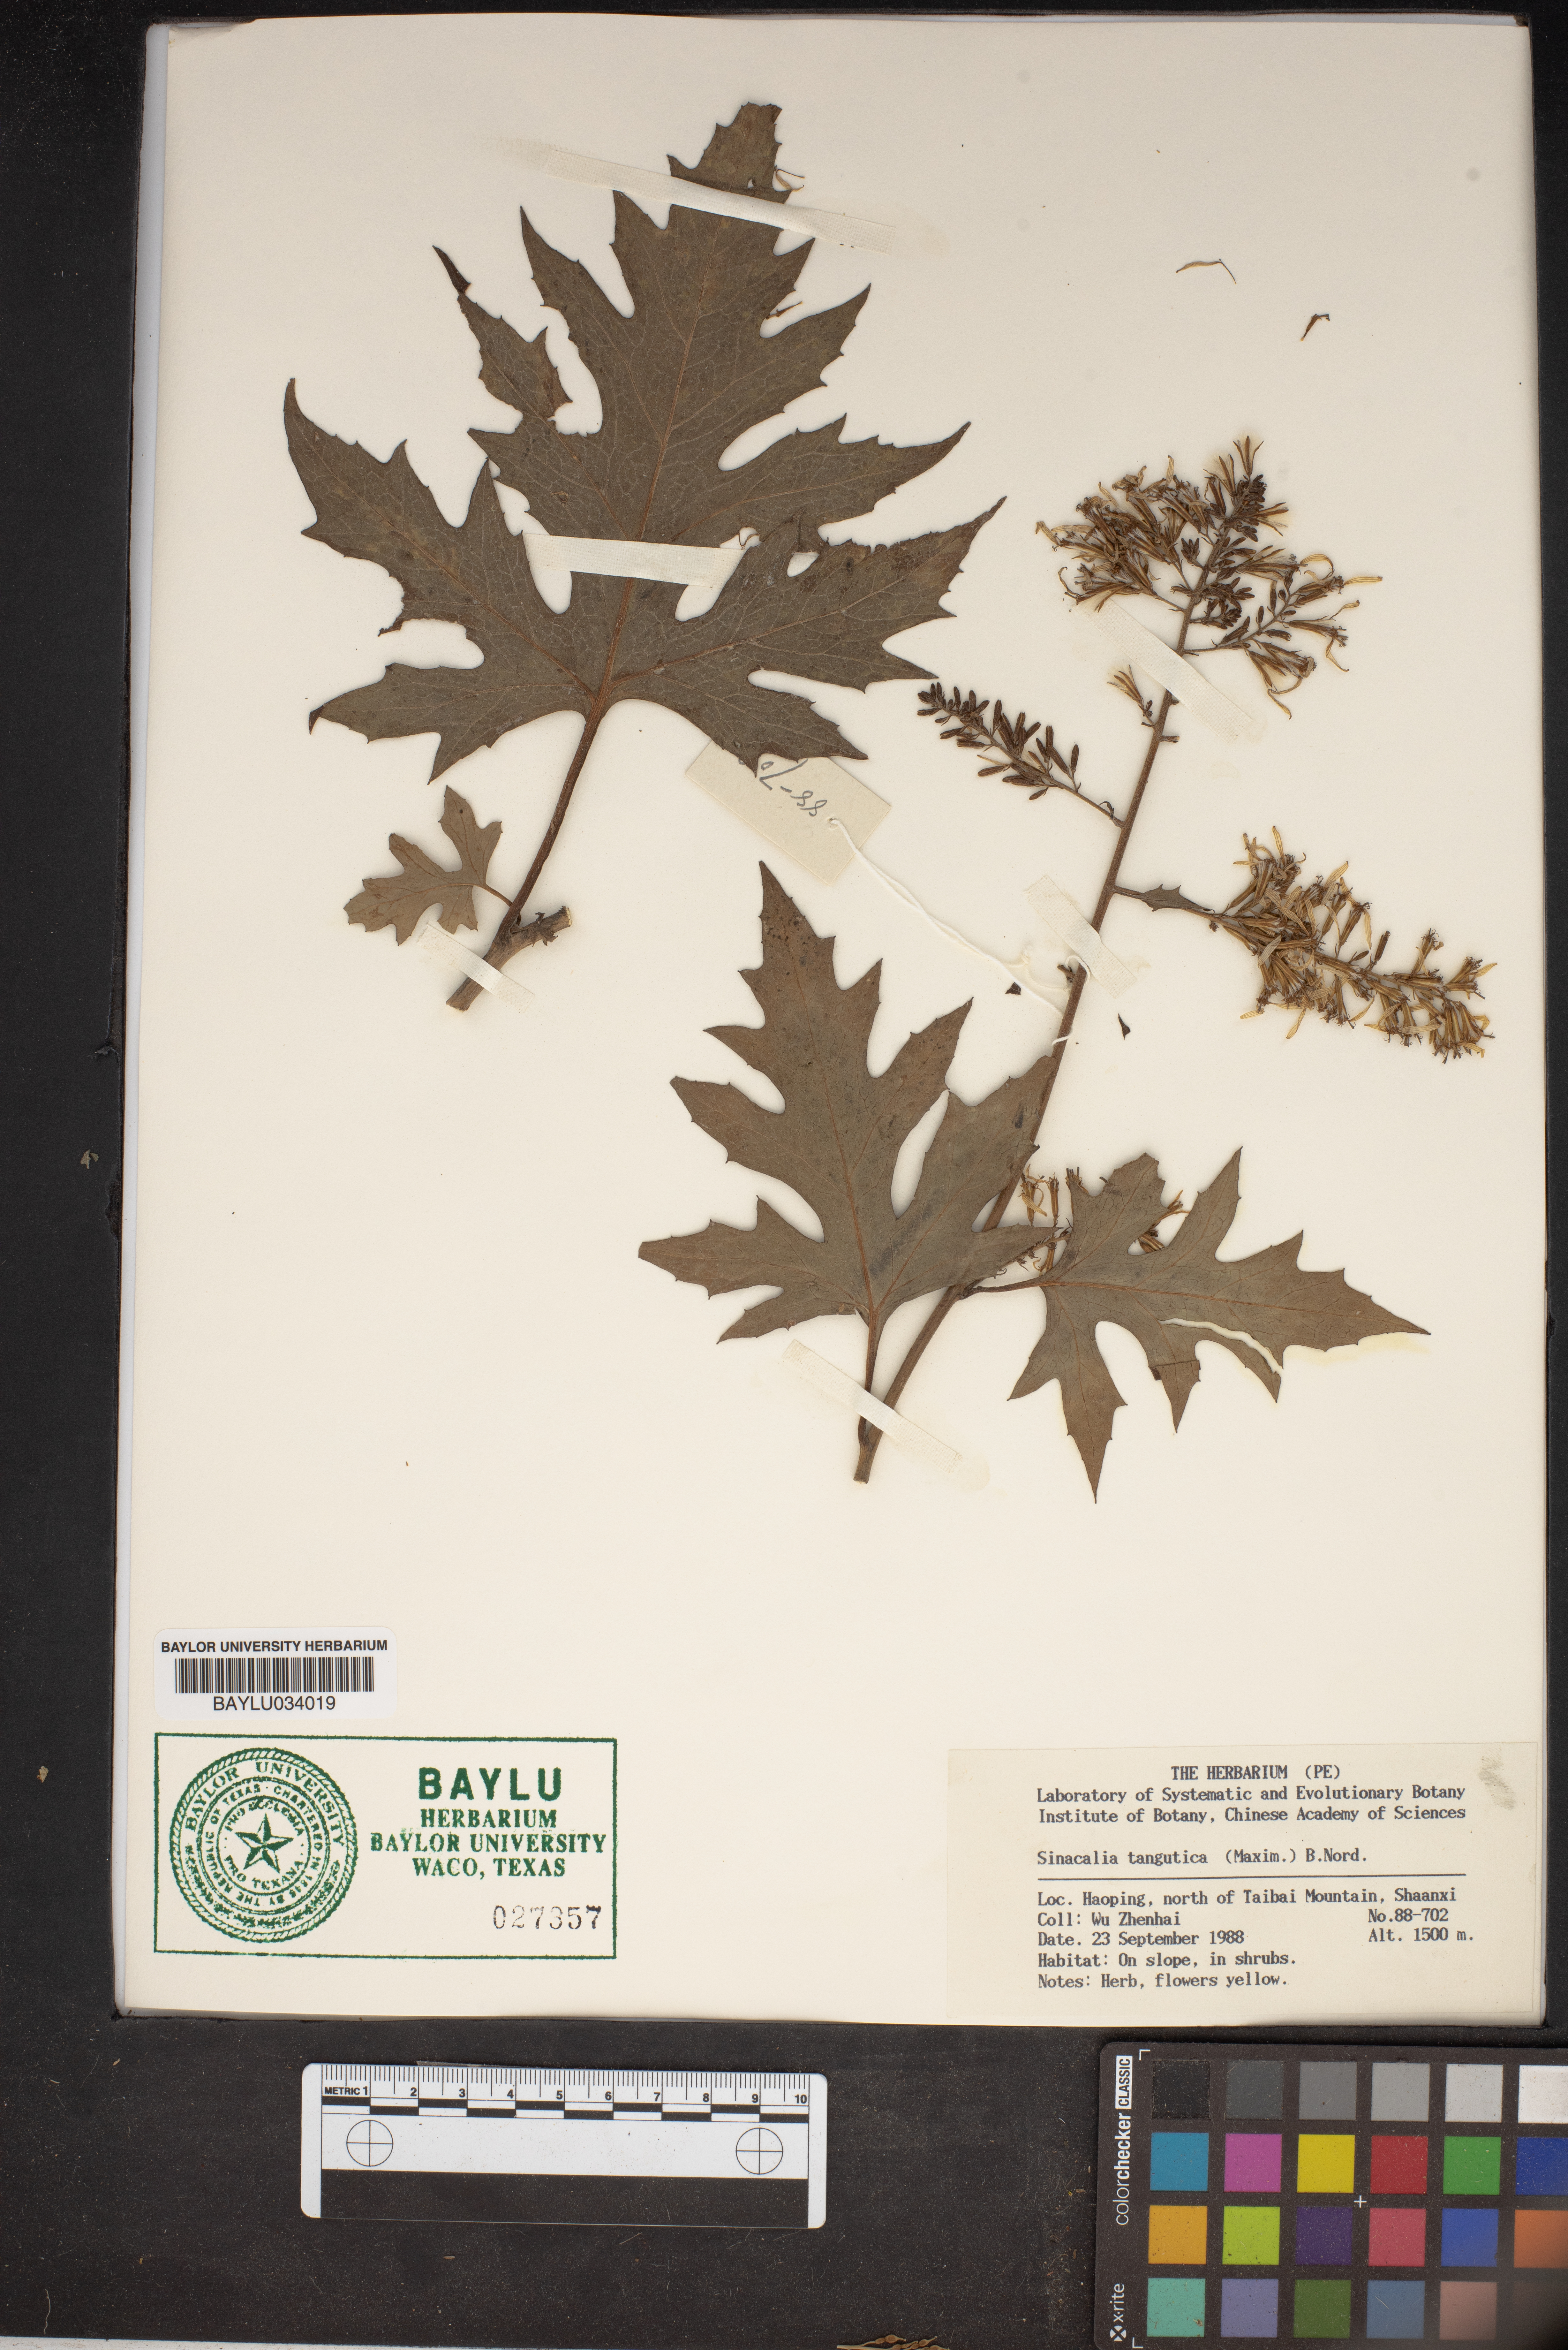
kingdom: Plantae
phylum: Tracheophyta
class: Magnoliopsida
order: Asterales
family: Asteraceae
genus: Sinacalia
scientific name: Sinacalia tangutica
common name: Chinese ragwort
